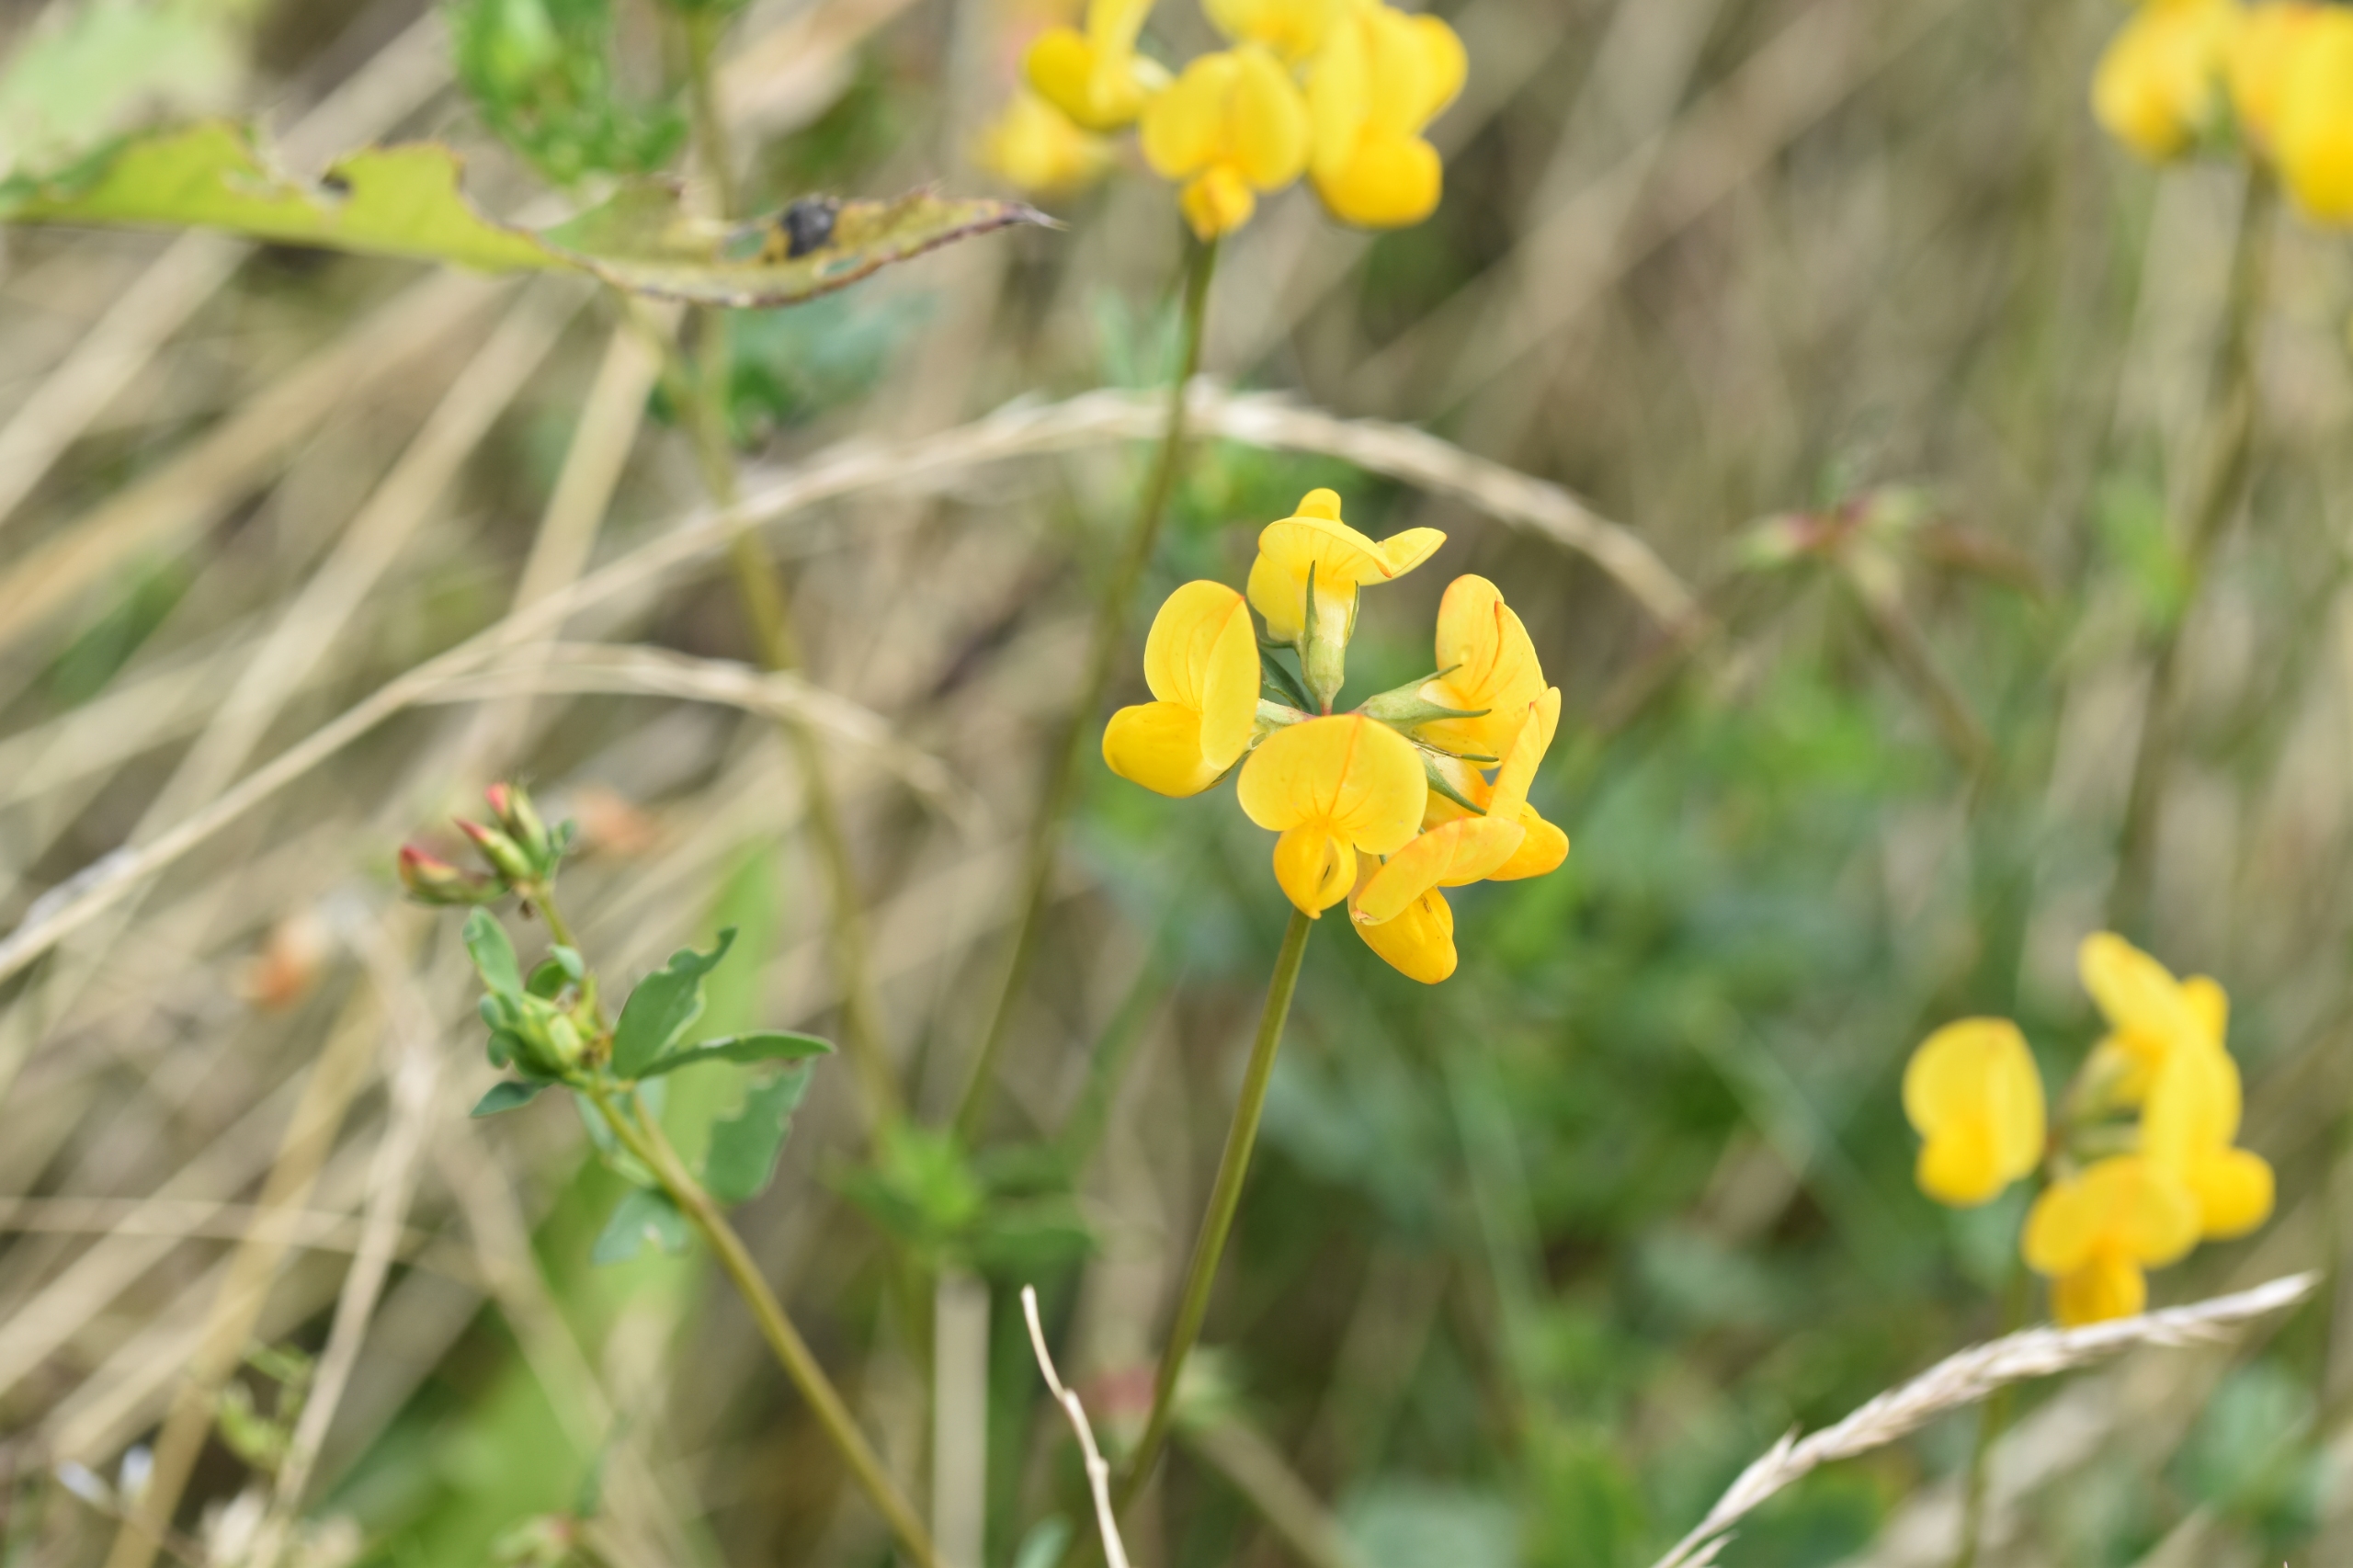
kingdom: Plantae
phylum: Tracheophyta
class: Magnoliopsida
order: Fabales
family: Fabaceae
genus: Lotus
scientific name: Lotus corniculatus
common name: Almindelig kællingetand
